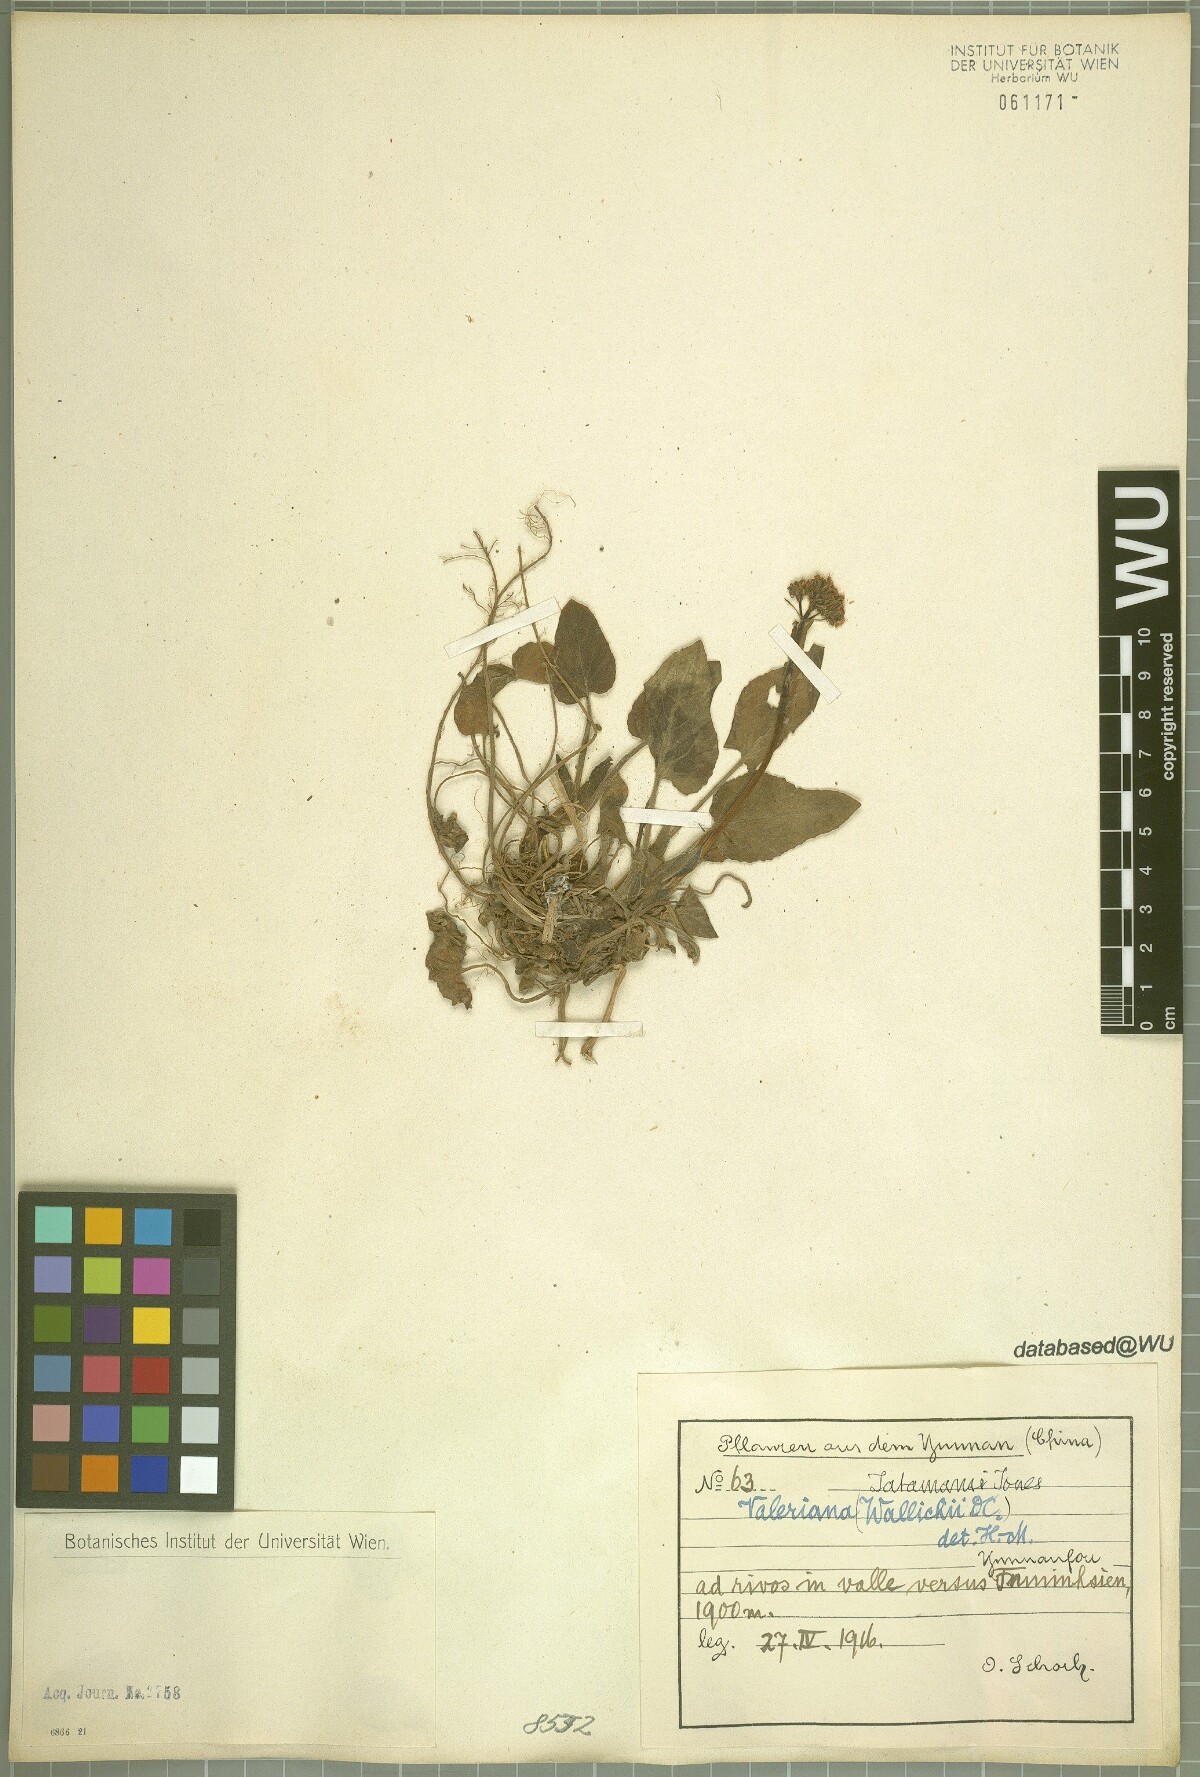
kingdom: Plantae
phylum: Tracheophyta
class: Magnoliopsida
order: Dipsacales
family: Caprifoliaceae
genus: Valeriana
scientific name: Valeriana jatamansi
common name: Indian valerian
